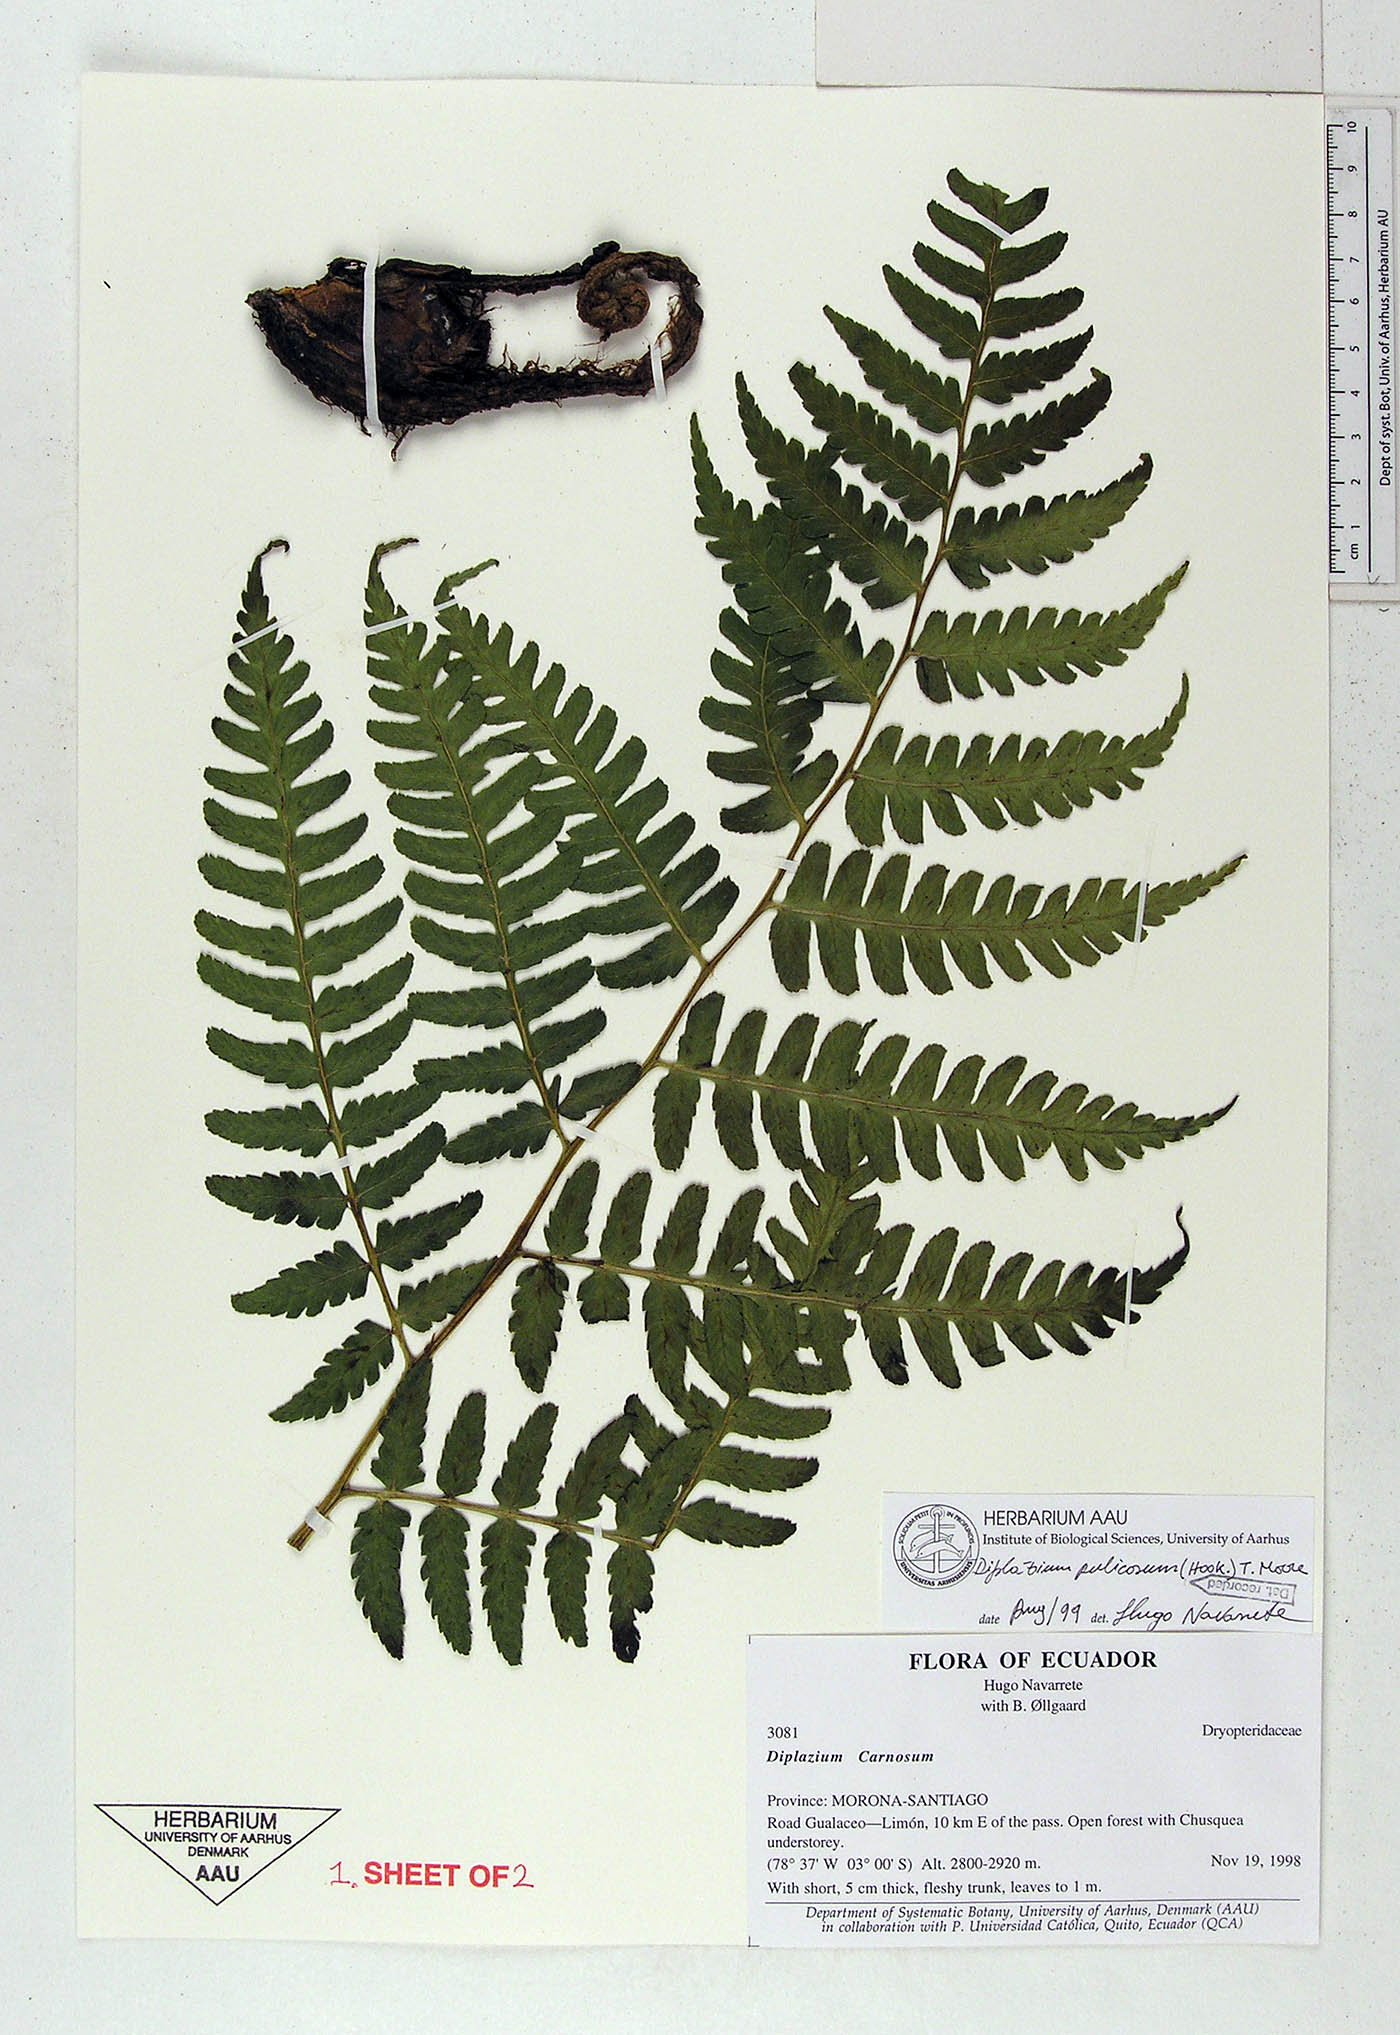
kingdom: Plantae
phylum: Tracheophyta
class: Polypodiopsida
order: Polypodiales
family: Athyriaceae
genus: Diplazium
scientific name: Diplazium pulicosum
